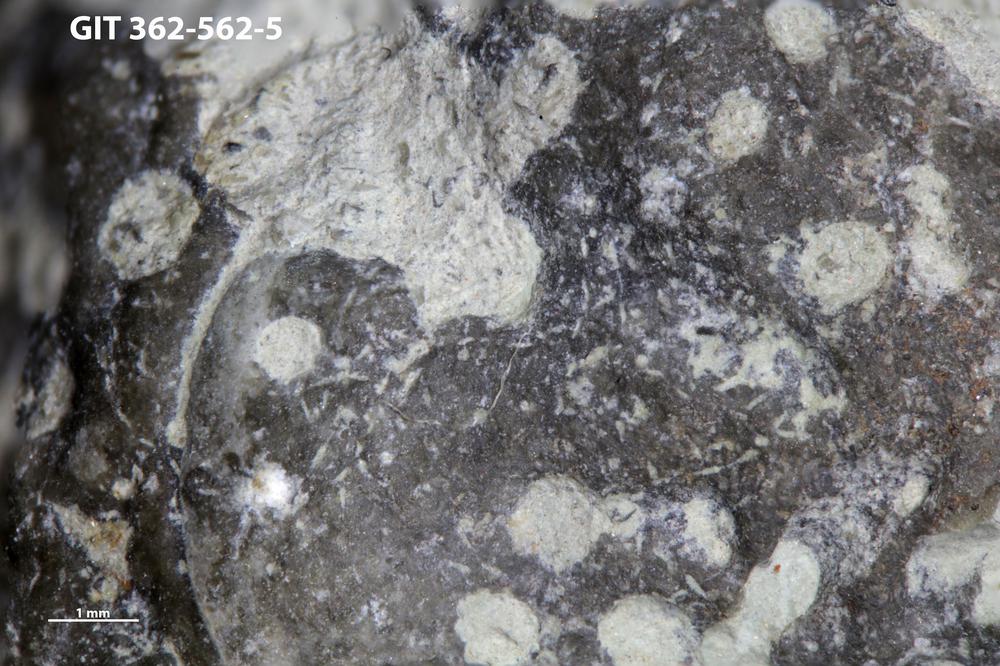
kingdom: Animalia
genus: Pinaceocladichnus
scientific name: Pinaceocladichnus
